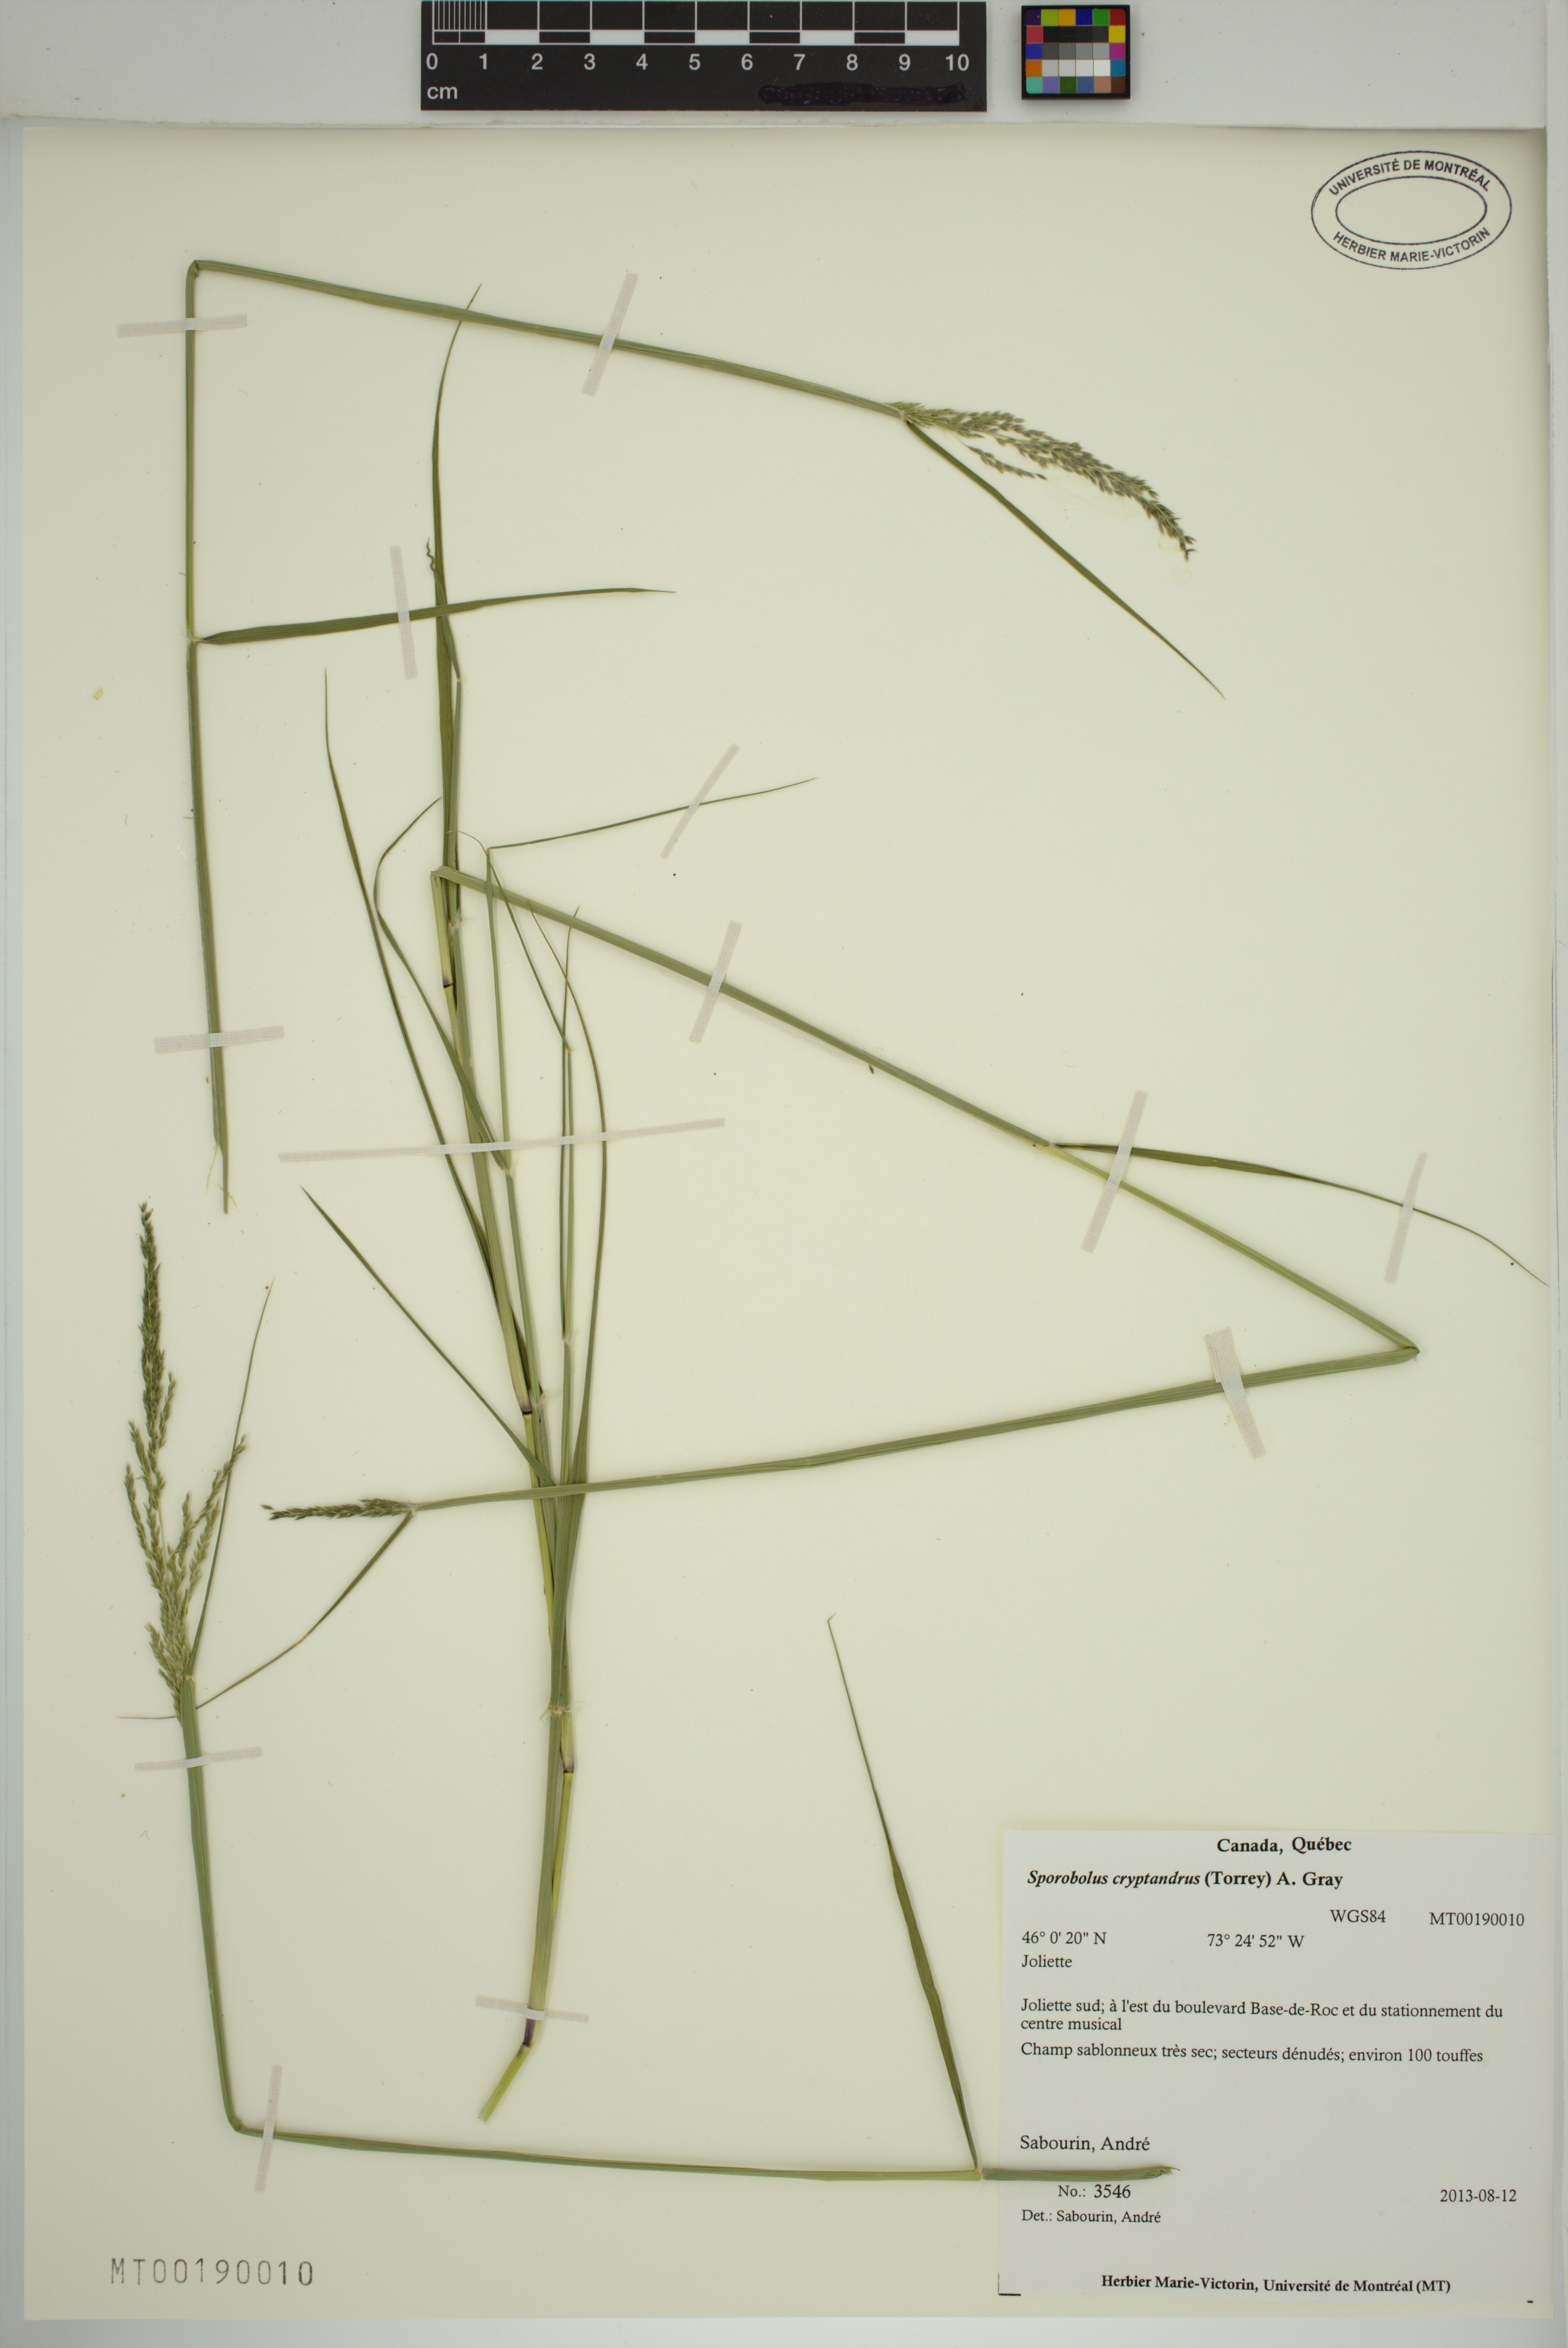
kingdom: Plantae
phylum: Tracheophyta
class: Liliopsida
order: Poales
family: Poaceae
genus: Sporobolus
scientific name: Sporobolus cryptandrus
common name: Sand dropseed
